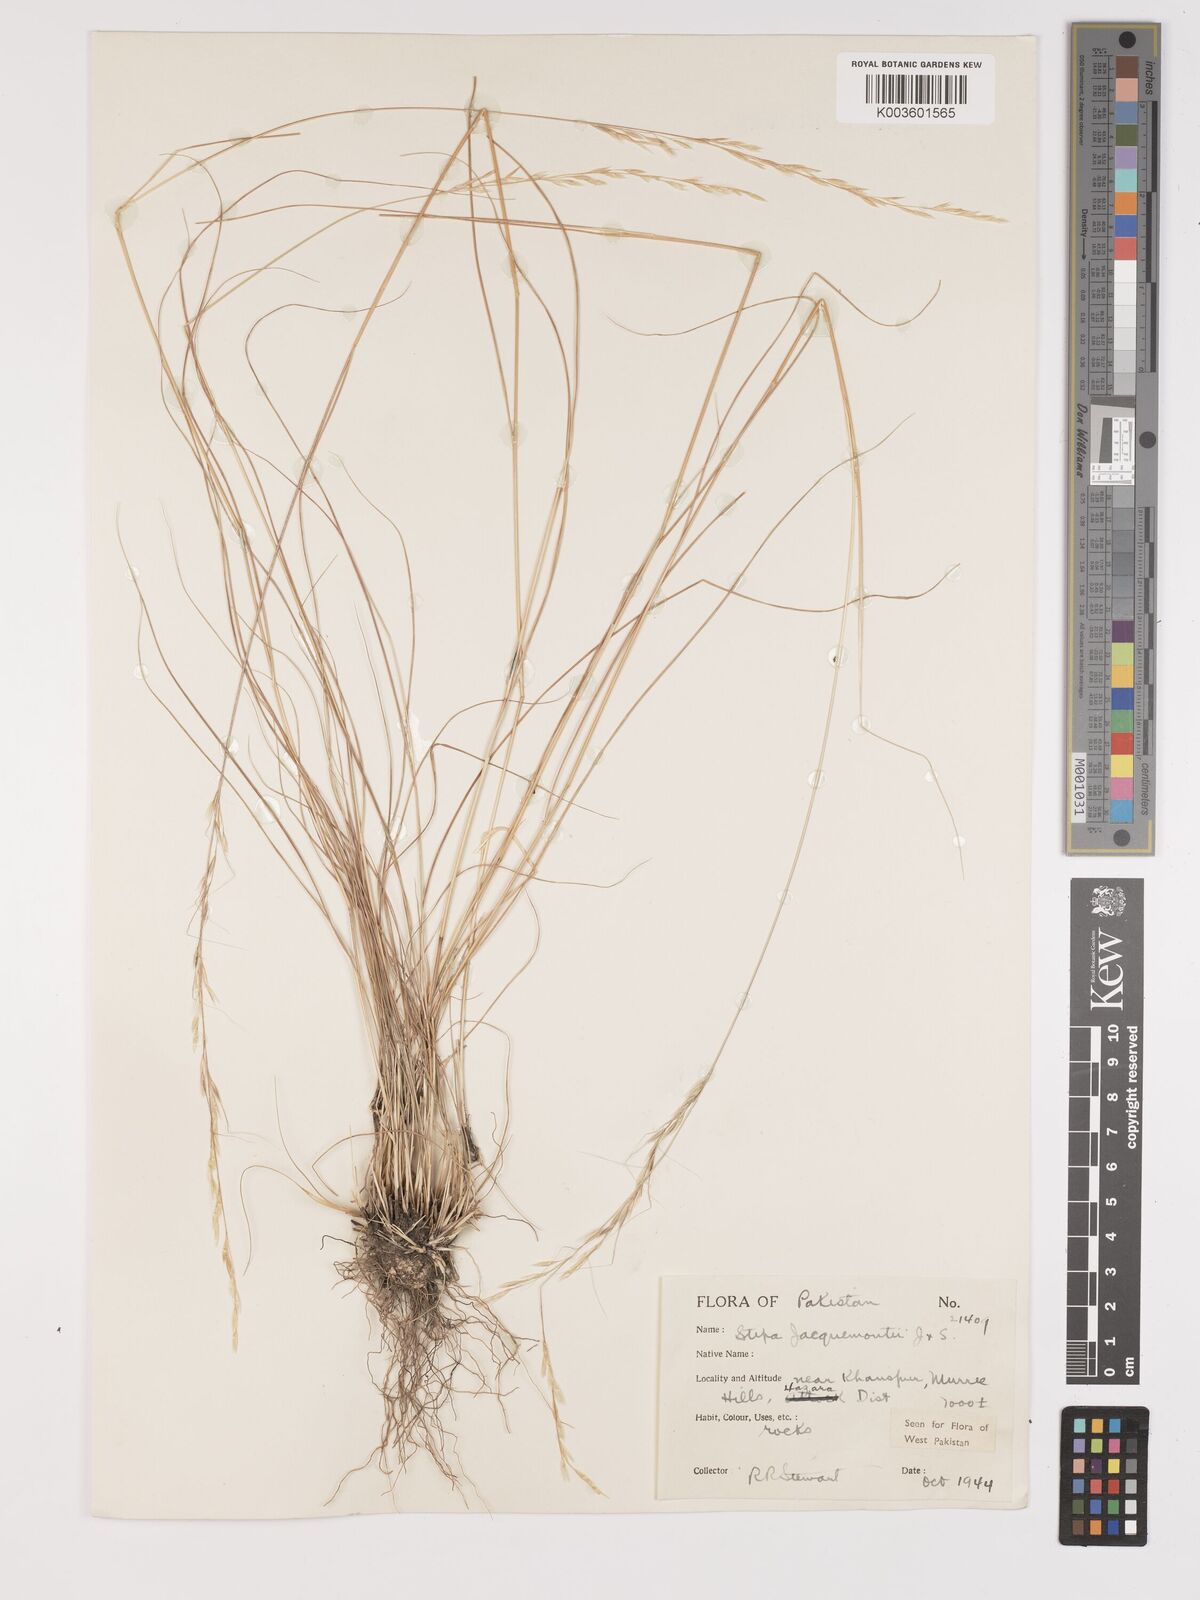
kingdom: Plantae
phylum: Tracheophyta
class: Liliopsida
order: Poales
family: Poaceae
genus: Achnatherum
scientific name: Achnatherum jacquemontii
